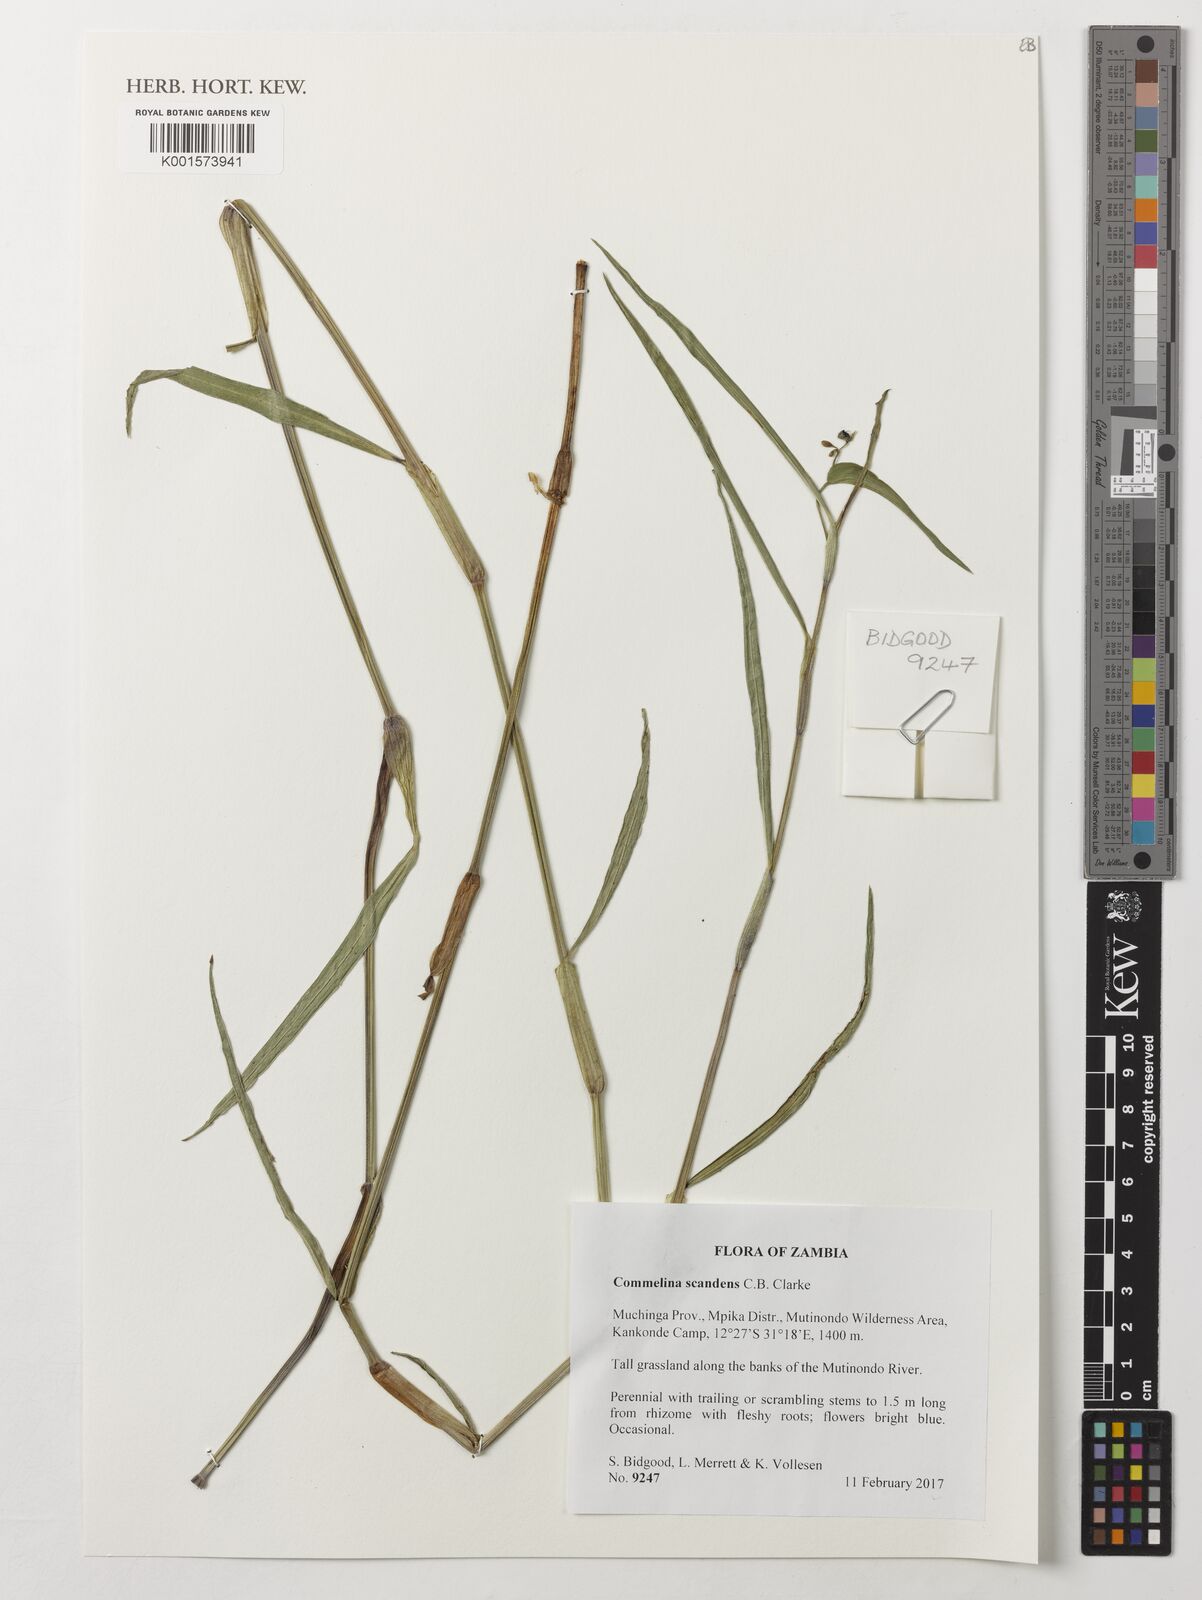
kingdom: Plantae
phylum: Tracheophyta
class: Liliopsida
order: Commelinales
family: Commelinaceae
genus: Commelina
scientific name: Commelina scandens
